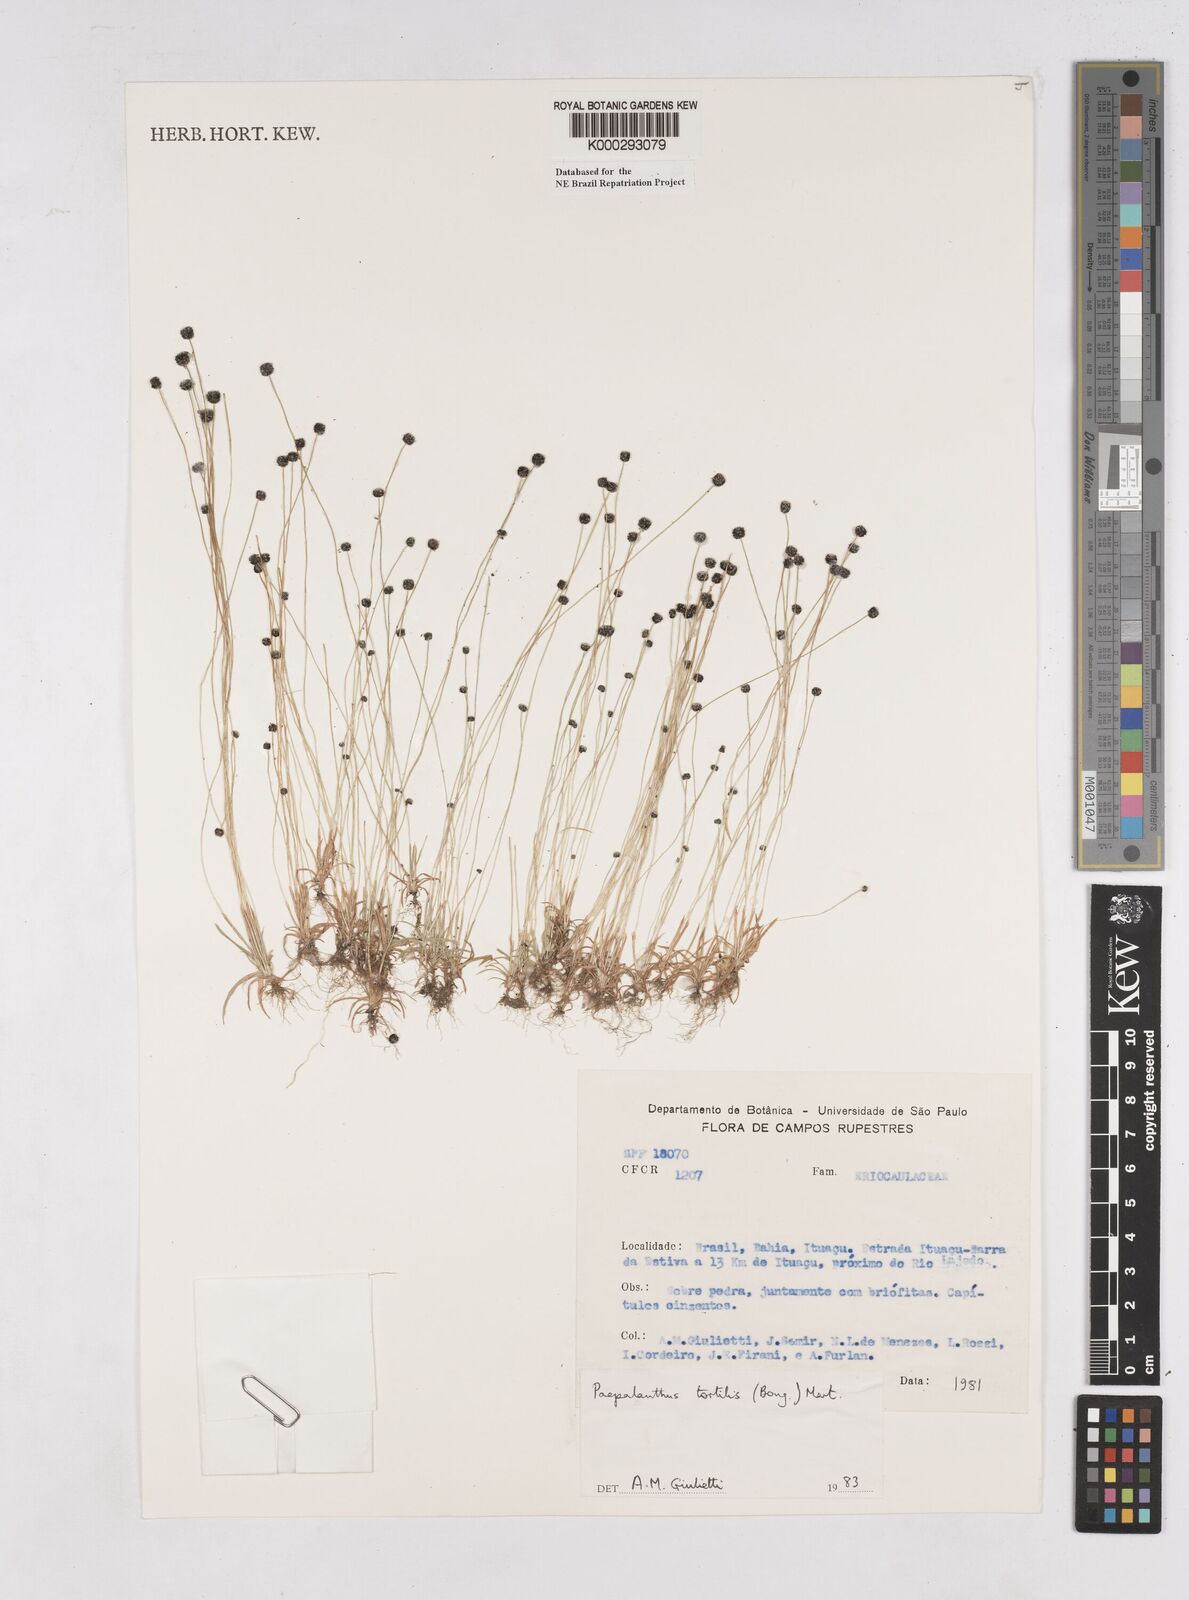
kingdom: Plantae
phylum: Tracheophyta
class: Liliopsida
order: Poales
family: Eriocaulaceae
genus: Paepalanthus
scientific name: Paepalanthus
